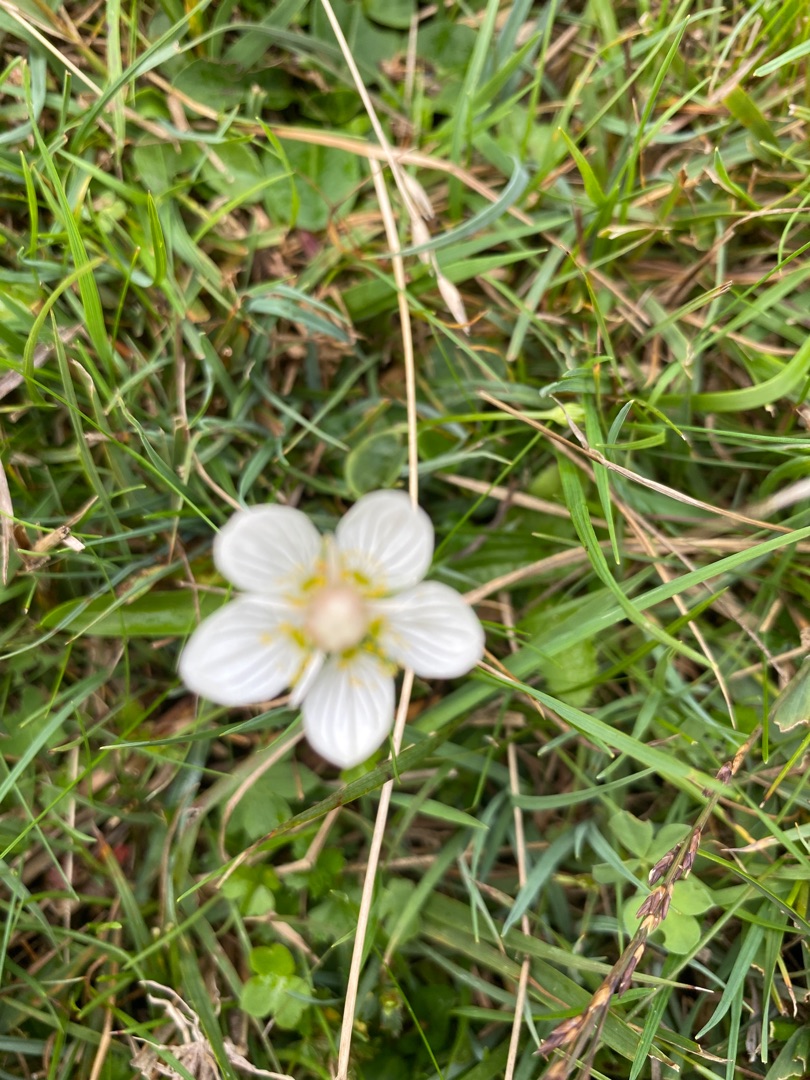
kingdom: Plantae
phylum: Tracheophyta
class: Magnoliopsida
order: Celastrales
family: Parnassiaceae
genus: Parnassia
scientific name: Parnassia palustris
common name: Leverurt
